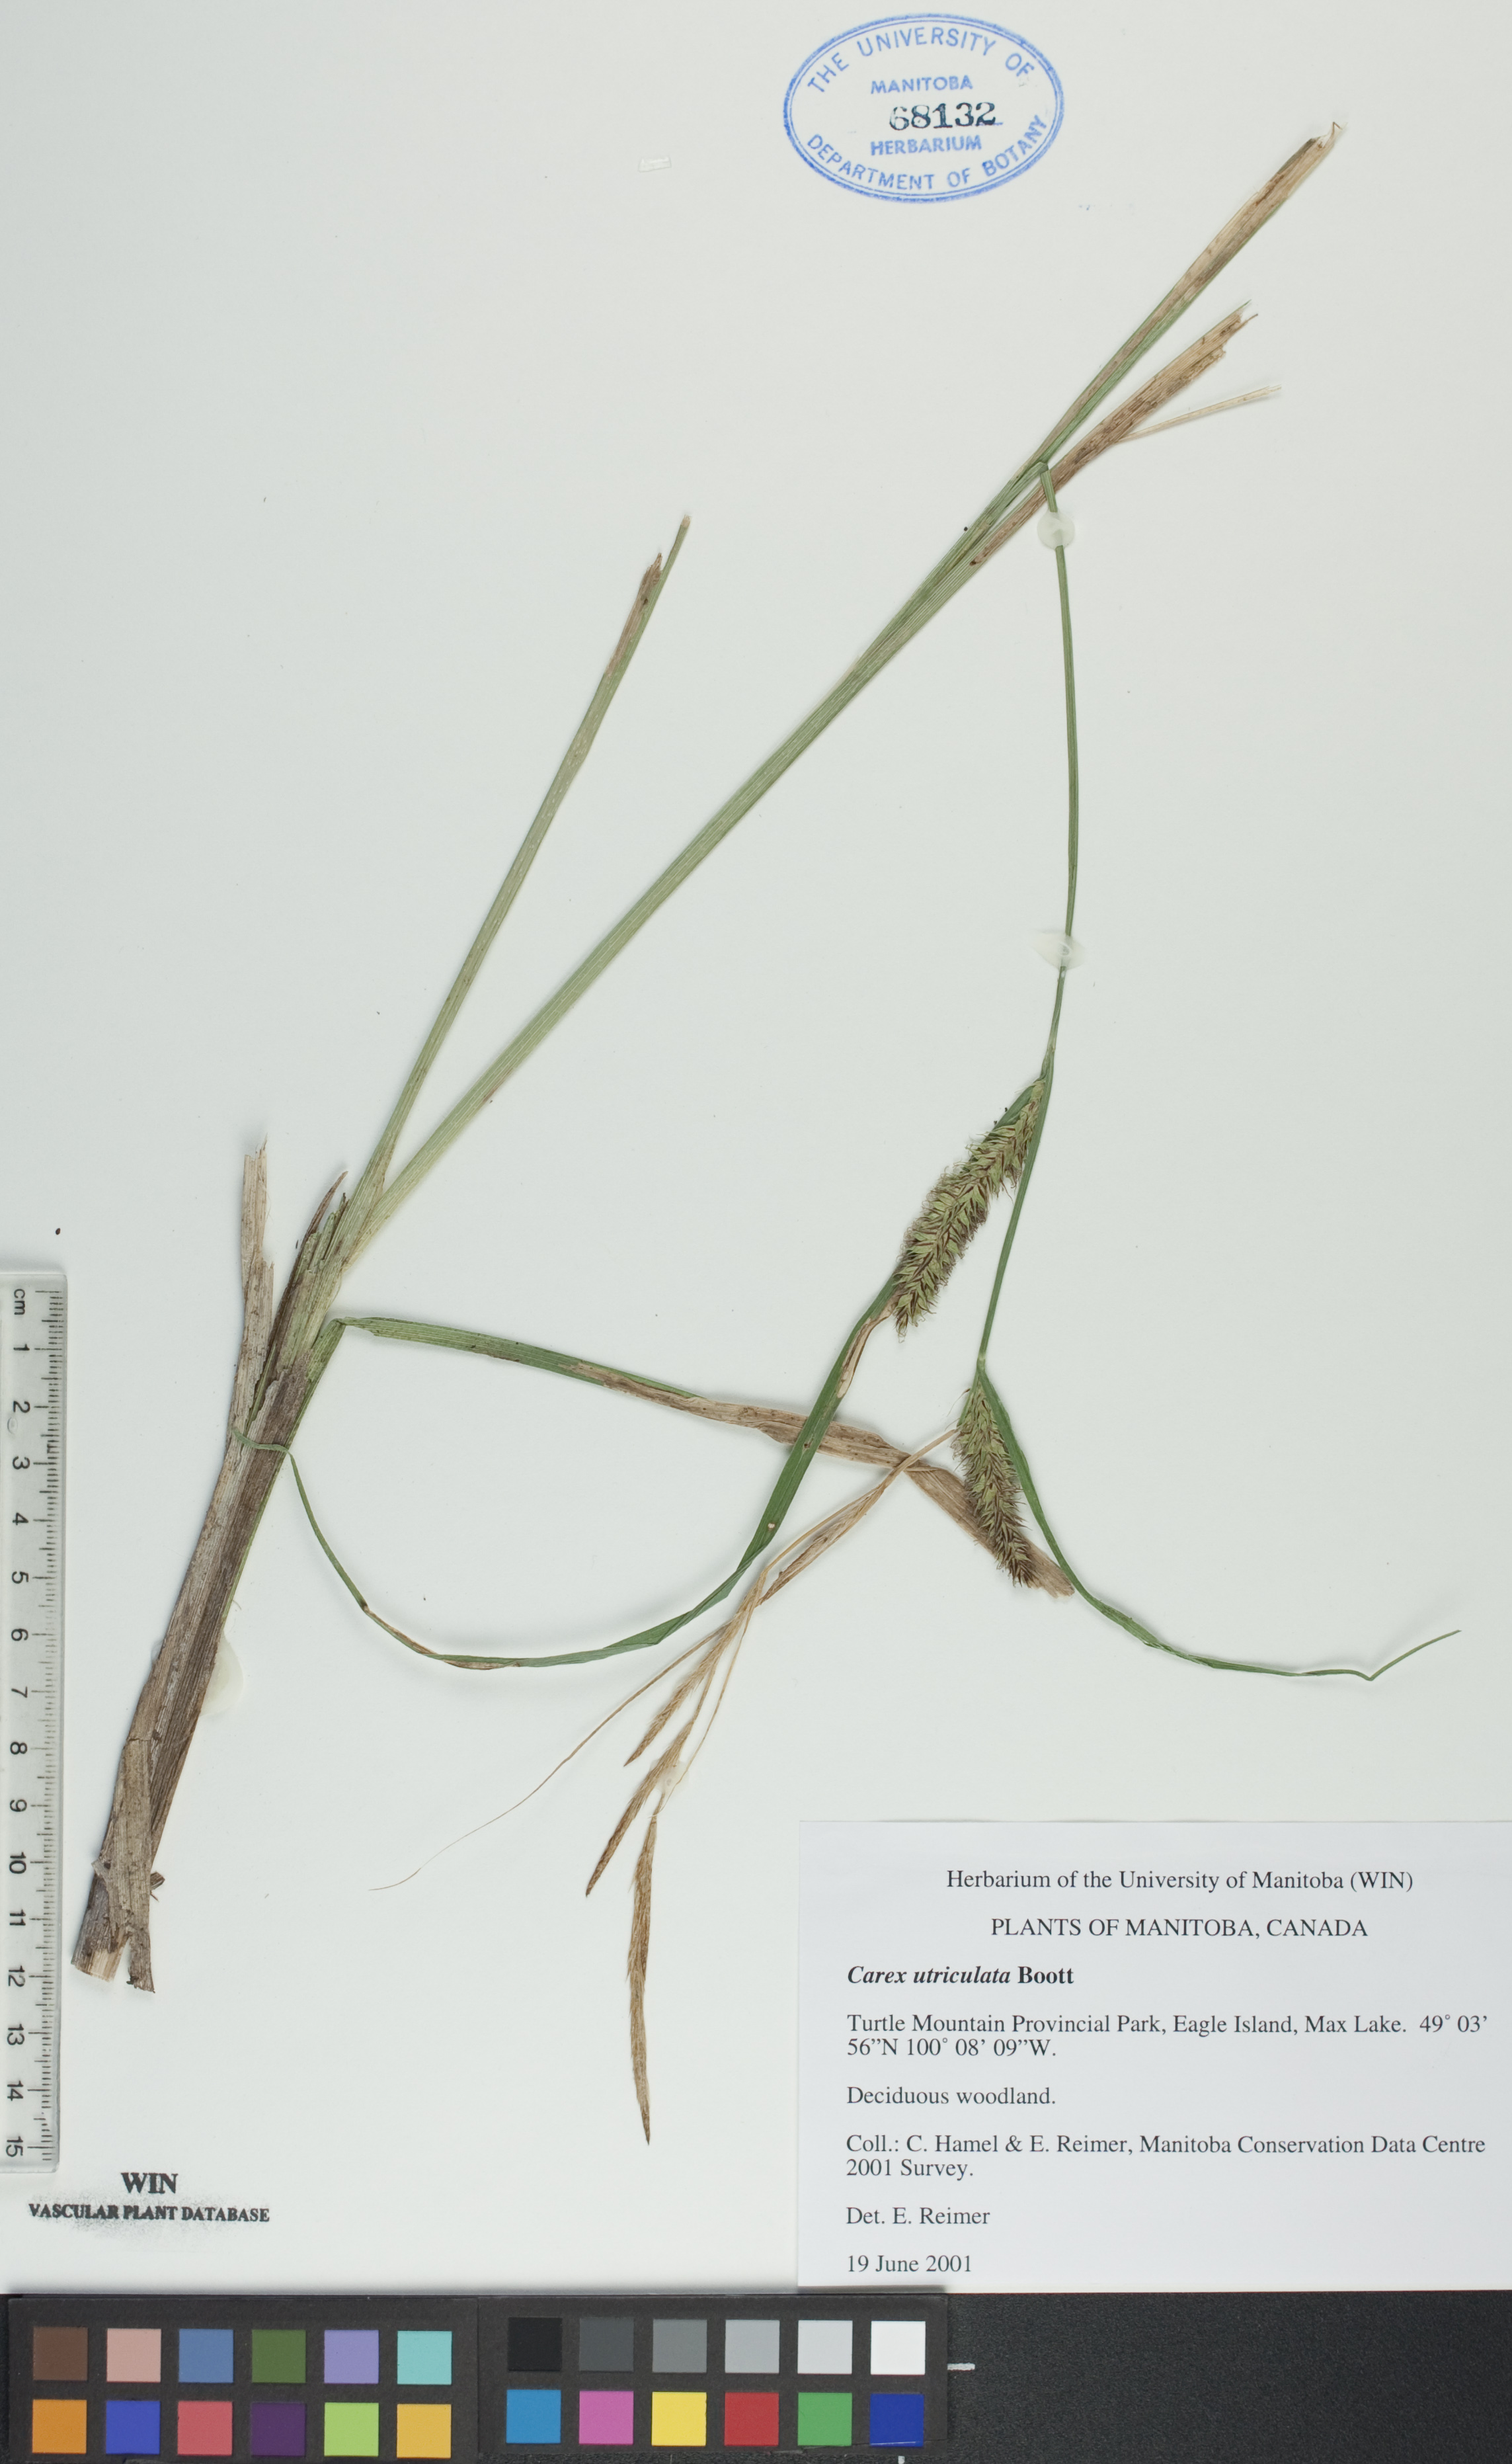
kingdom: Plantae
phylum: Tracheophyta
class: Liliopsida
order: Poales
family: Cyperaceae
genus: Carex
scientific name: Carex utriculata
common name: Beaked sedge
